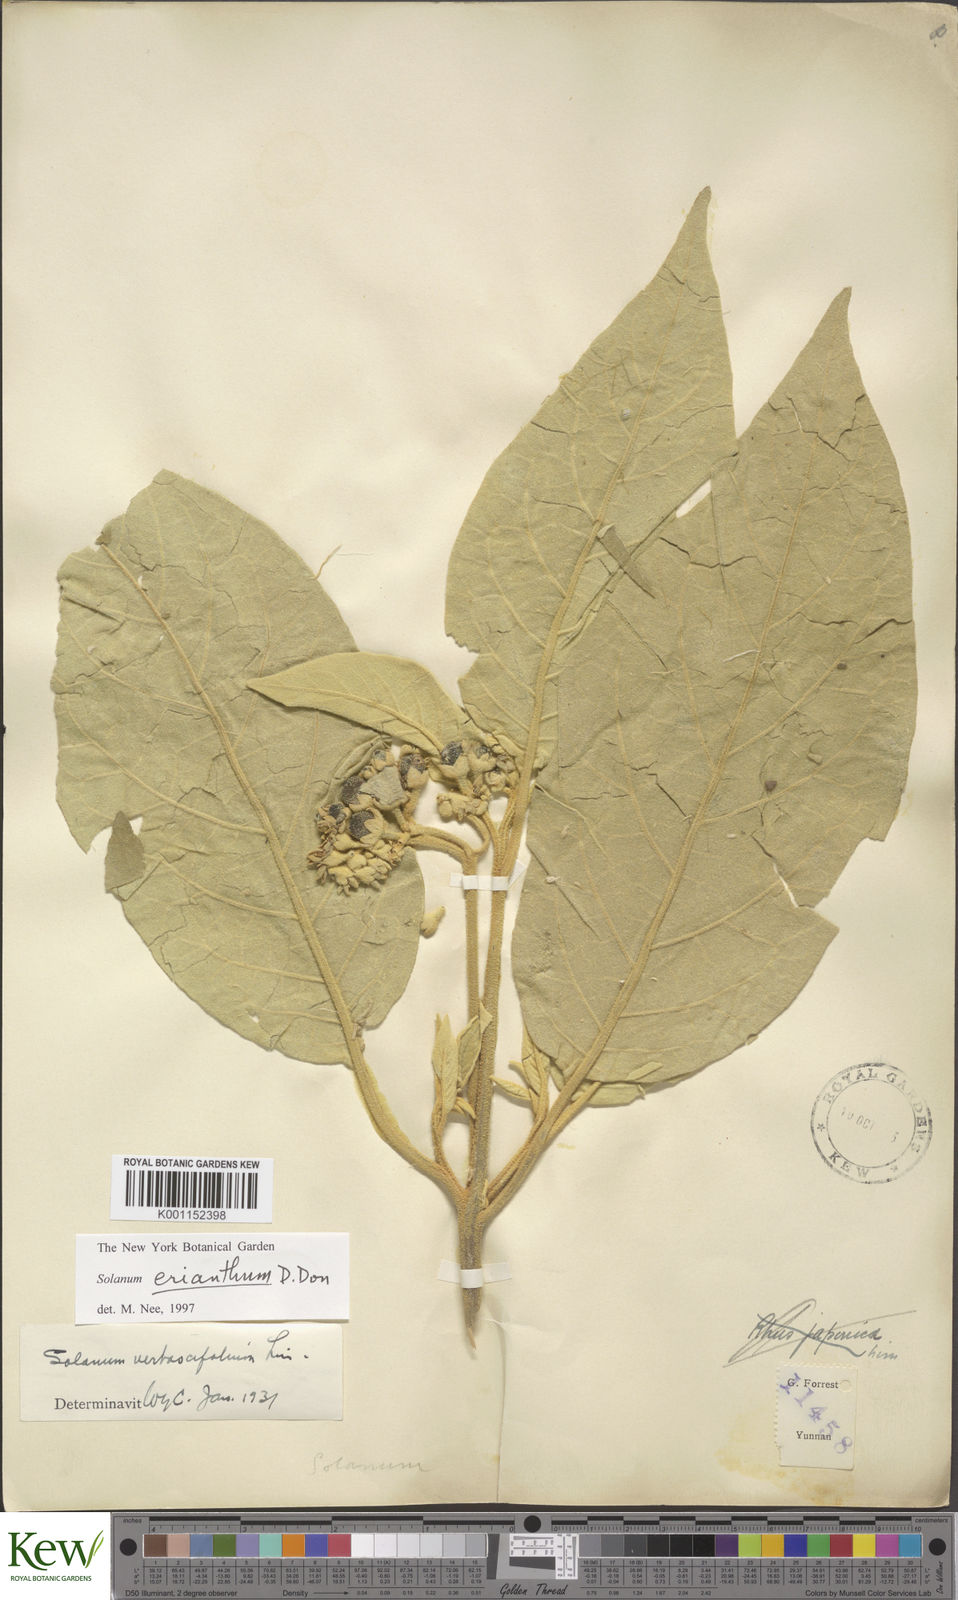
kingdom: Plantae
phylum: Tracheophyta
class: Magnoliopsida
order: Solanales
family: Solanaceae
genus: Solanum
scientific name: Solanum donianum
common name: Mullein nightshade
